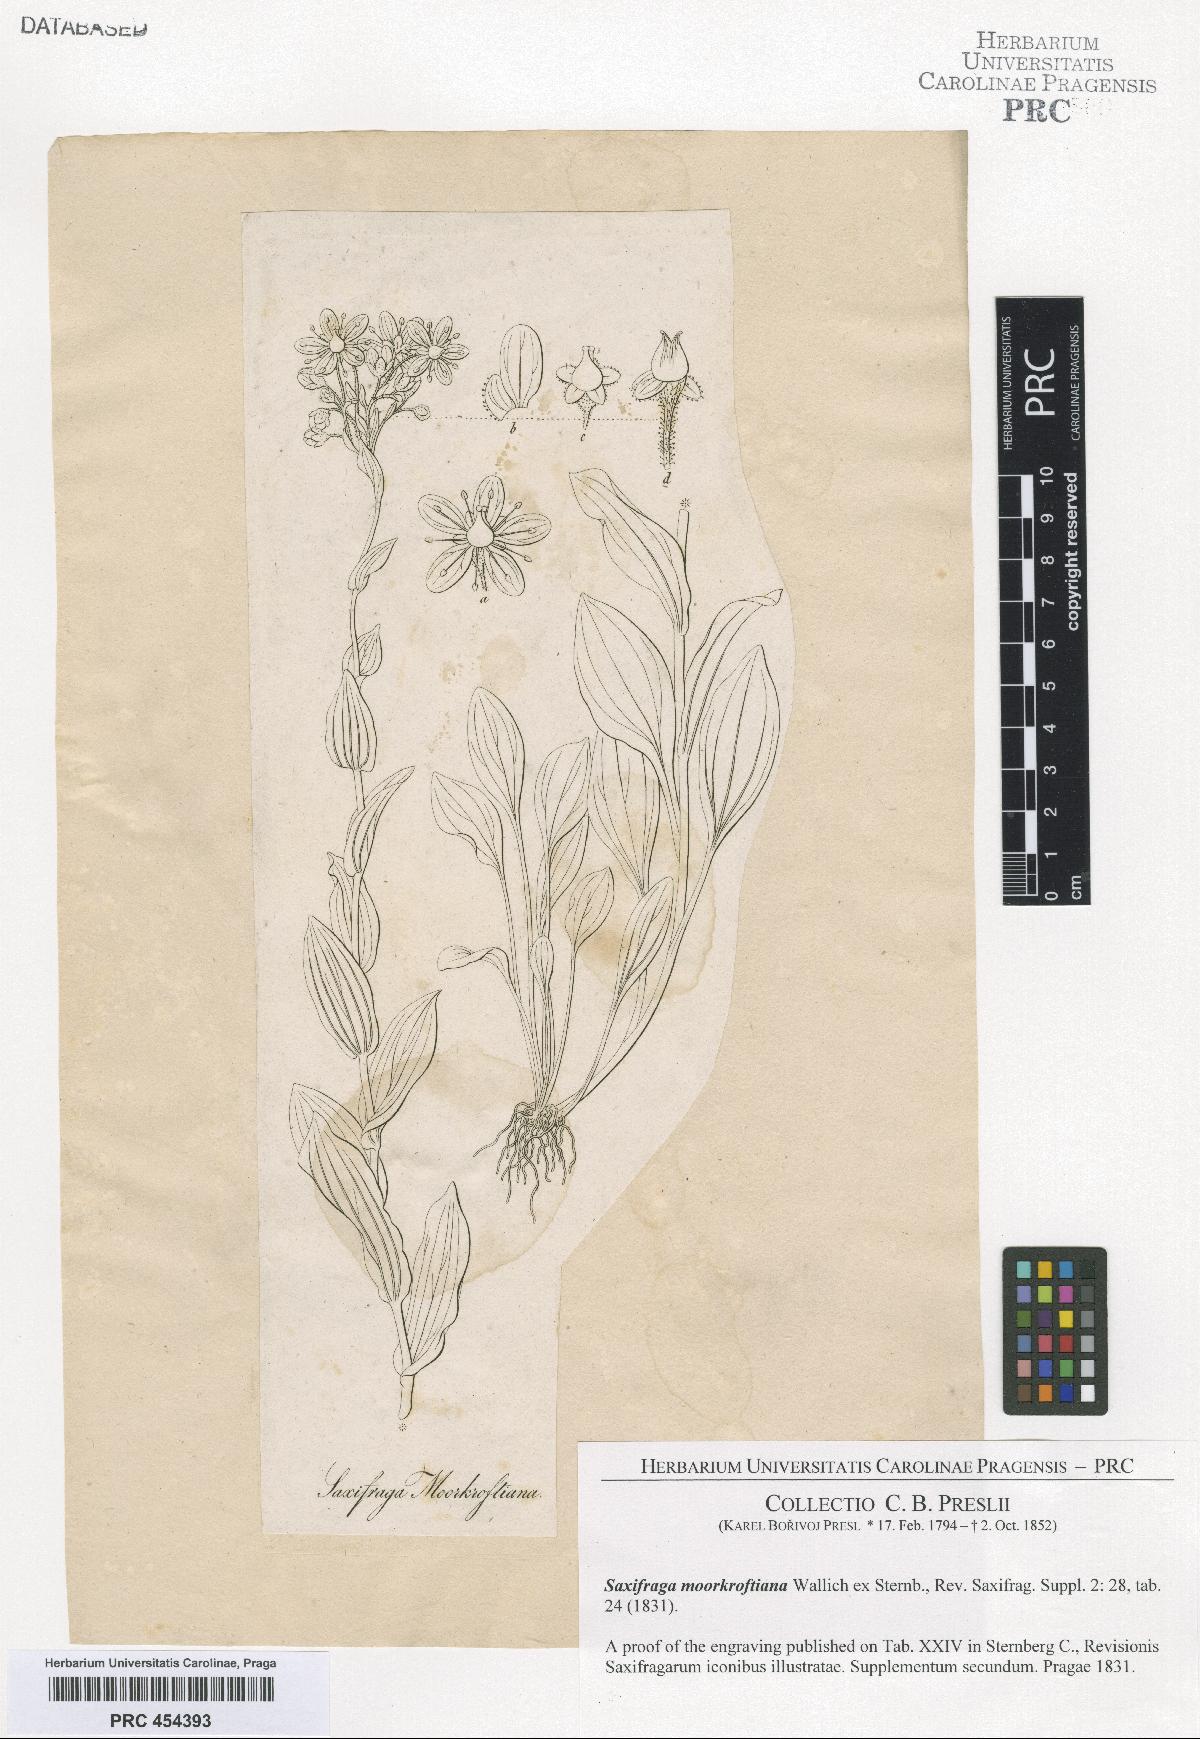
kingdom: Plantae
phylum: Tracheophyta
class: Magnoliopsida
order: Saxifragales
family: Saxifragaceae
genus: Saxifraga
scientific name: Saxifraga moorcroftiana
